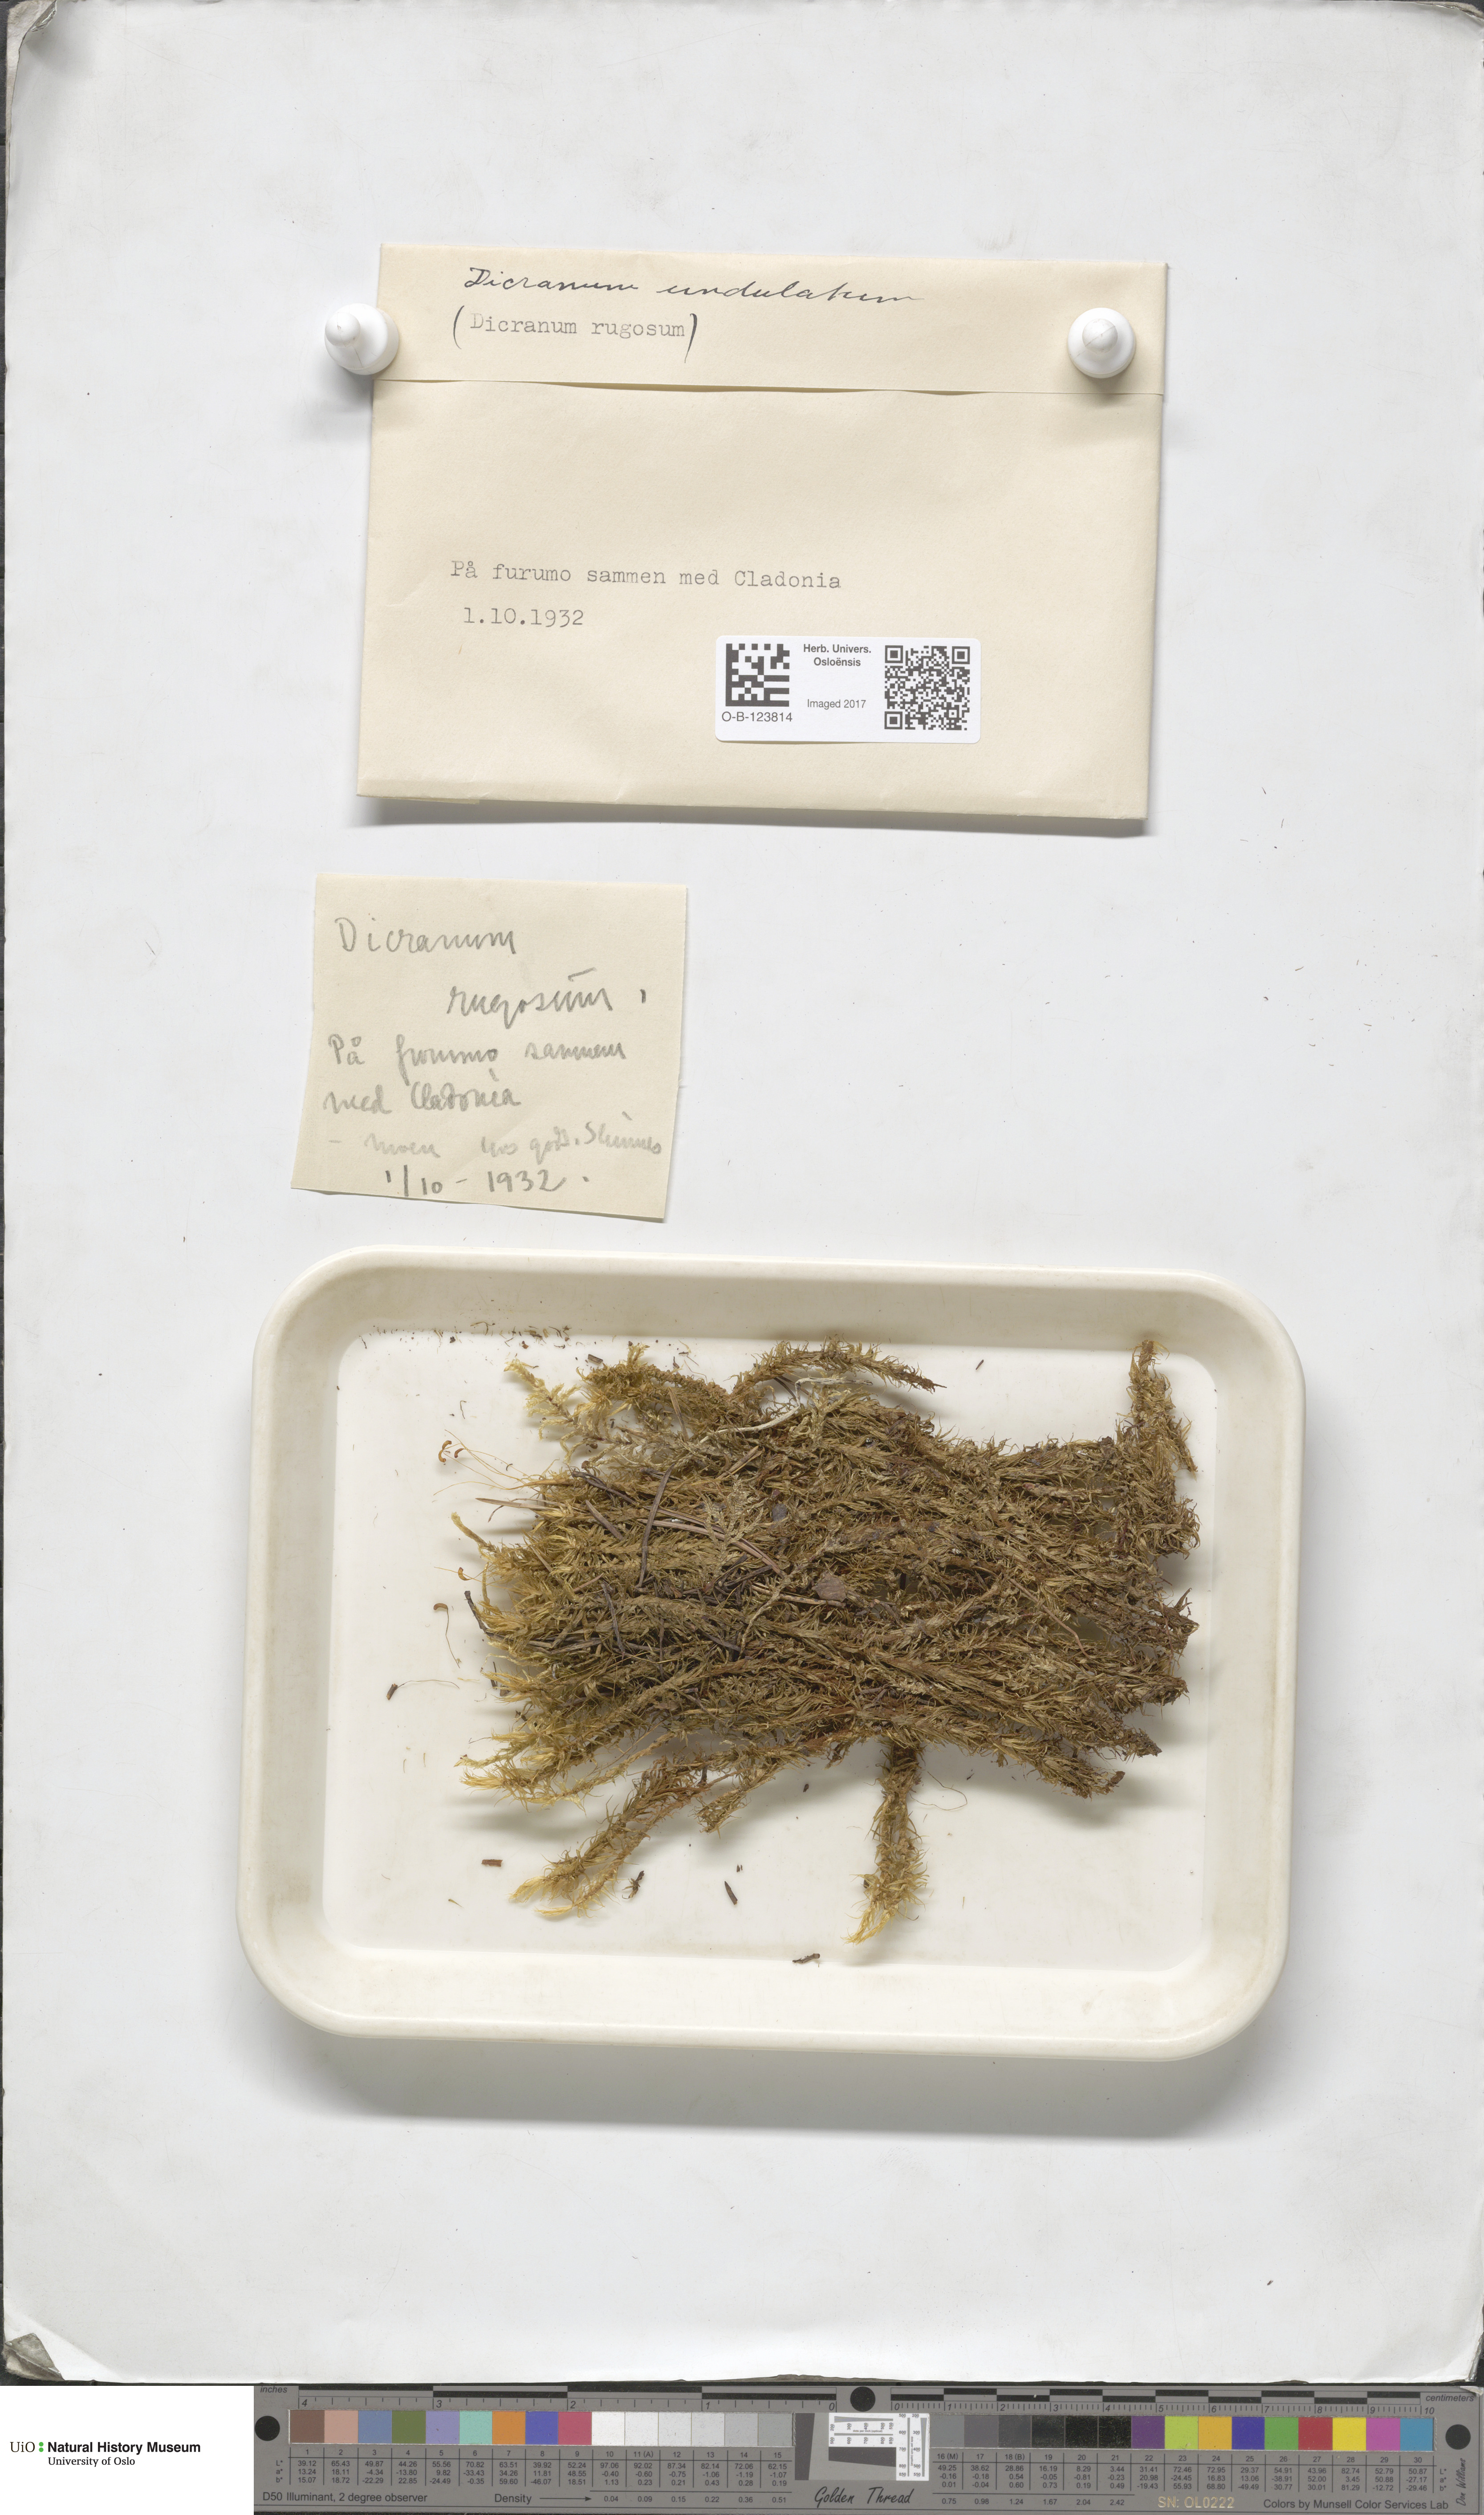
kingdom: Plantae
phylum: Bryophyta
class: Bryopsida
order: Dicranales
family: Dicranaceae
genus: Dicranum
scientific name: Dicranum undulatum
